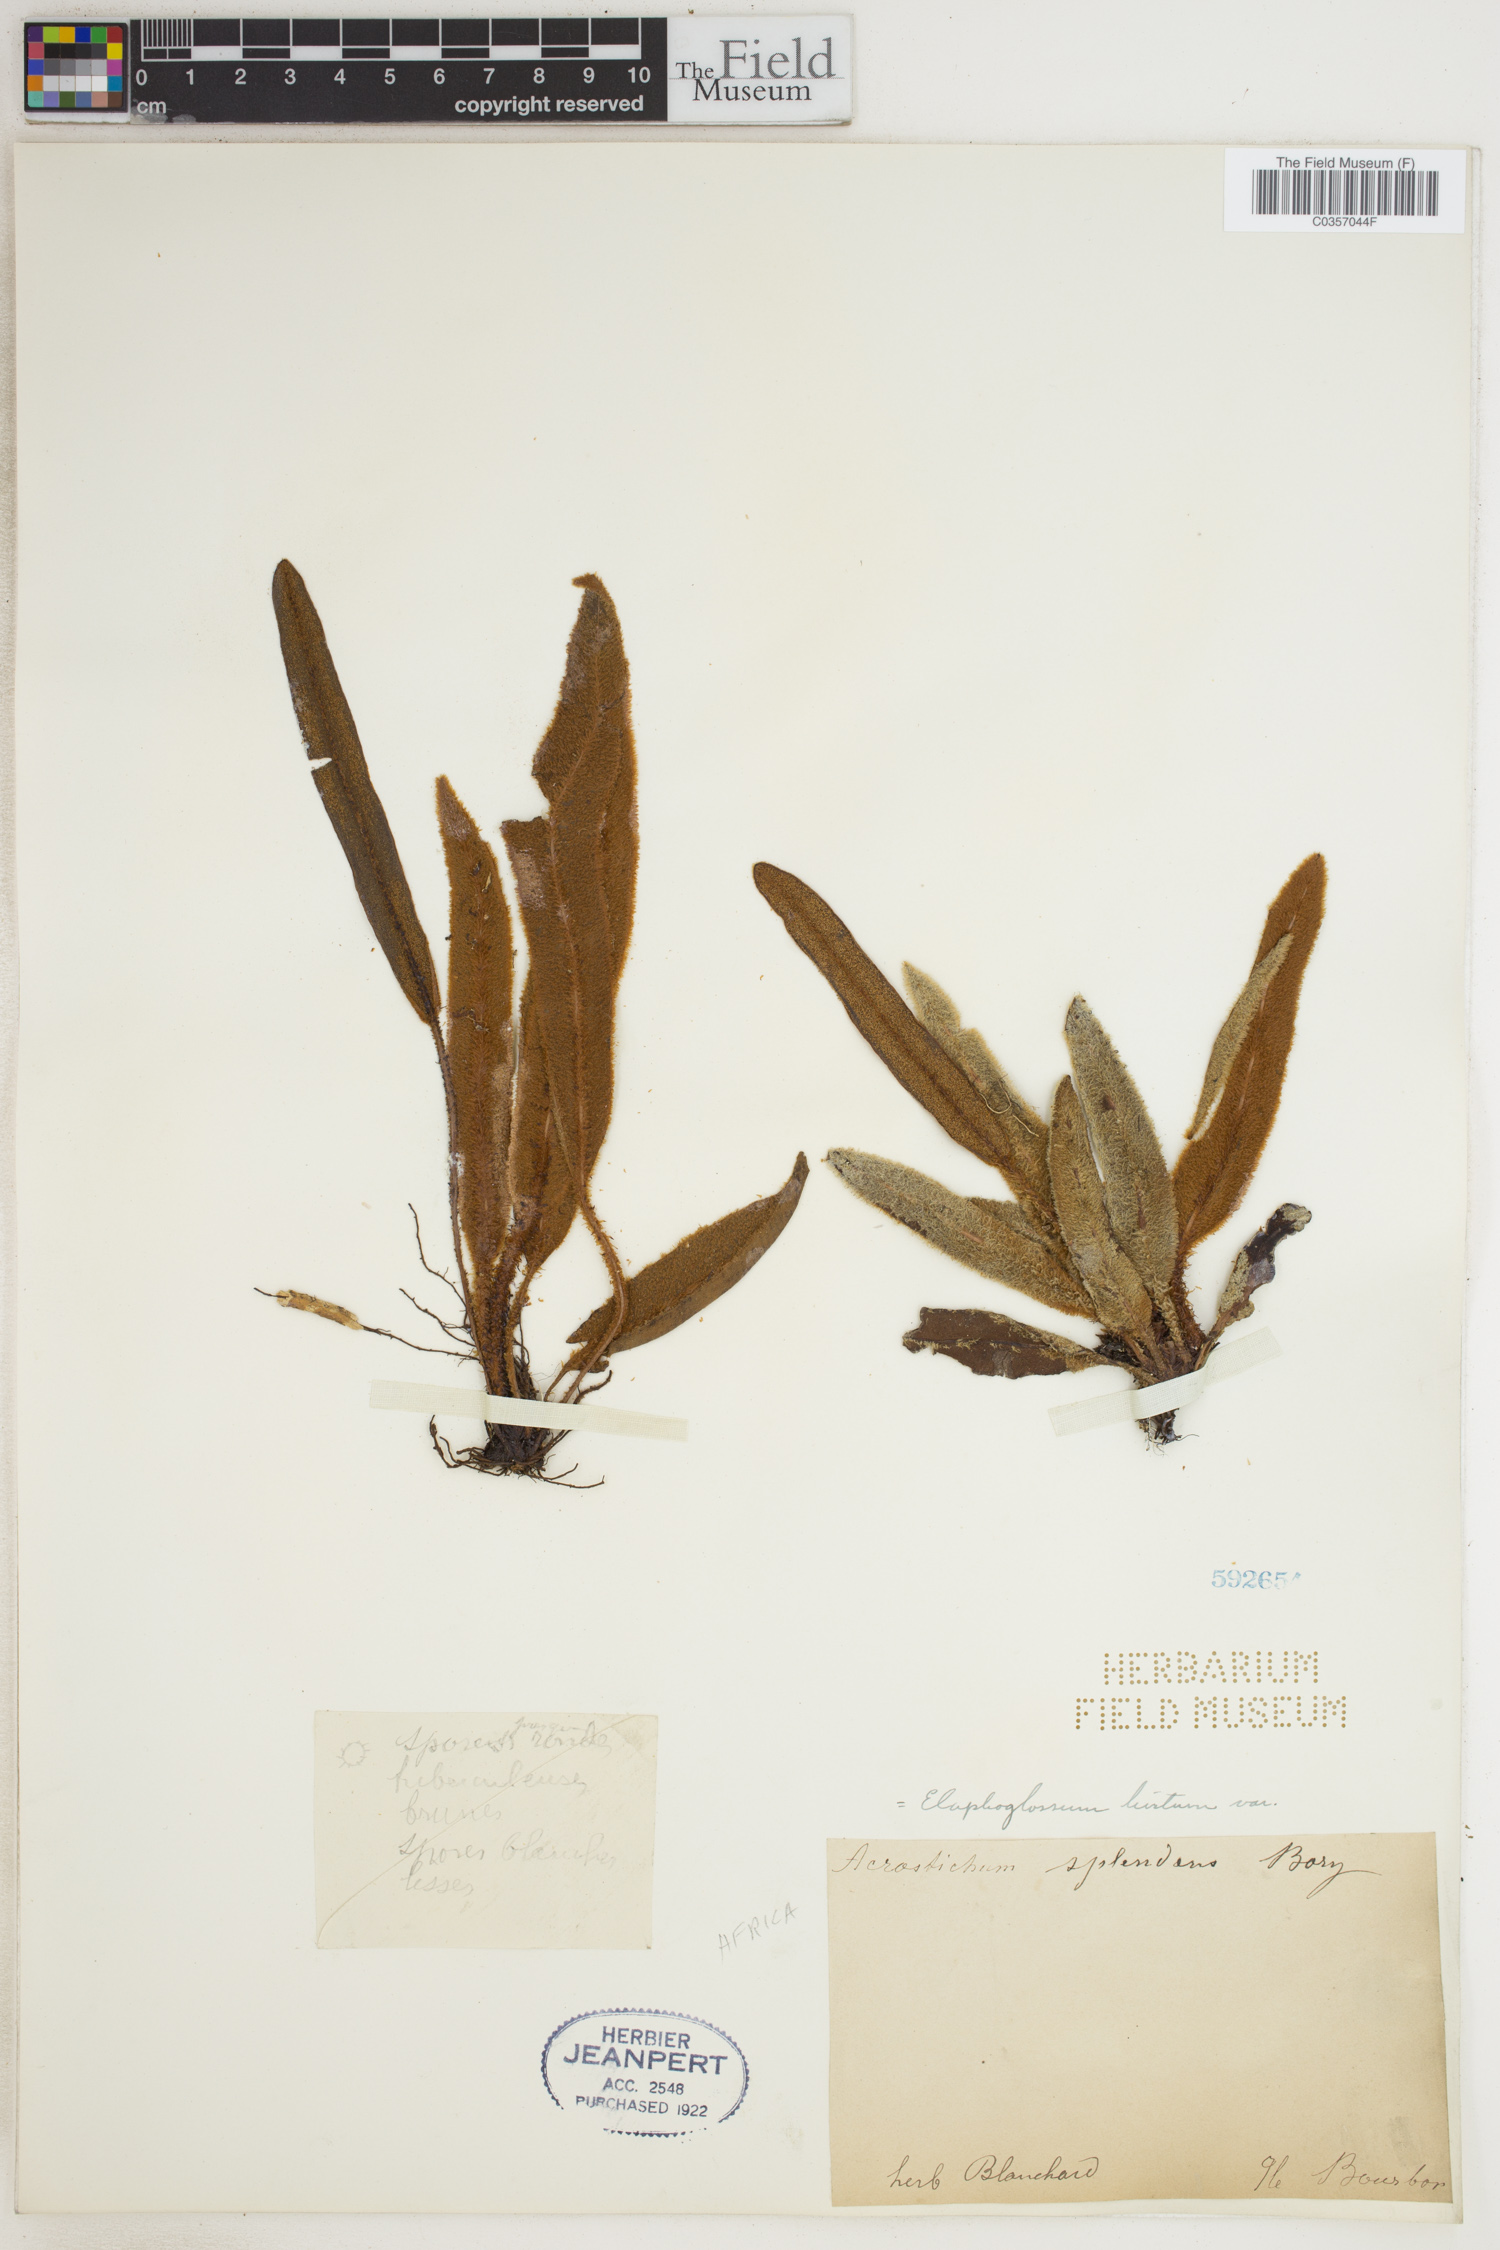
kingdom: Plantae
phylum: Tracheophyta
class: Polypodiopsida
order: Polypodiales
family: Dryopteridaceae
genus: Elaphoglossum
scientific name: Elaphoglossum hirtum
